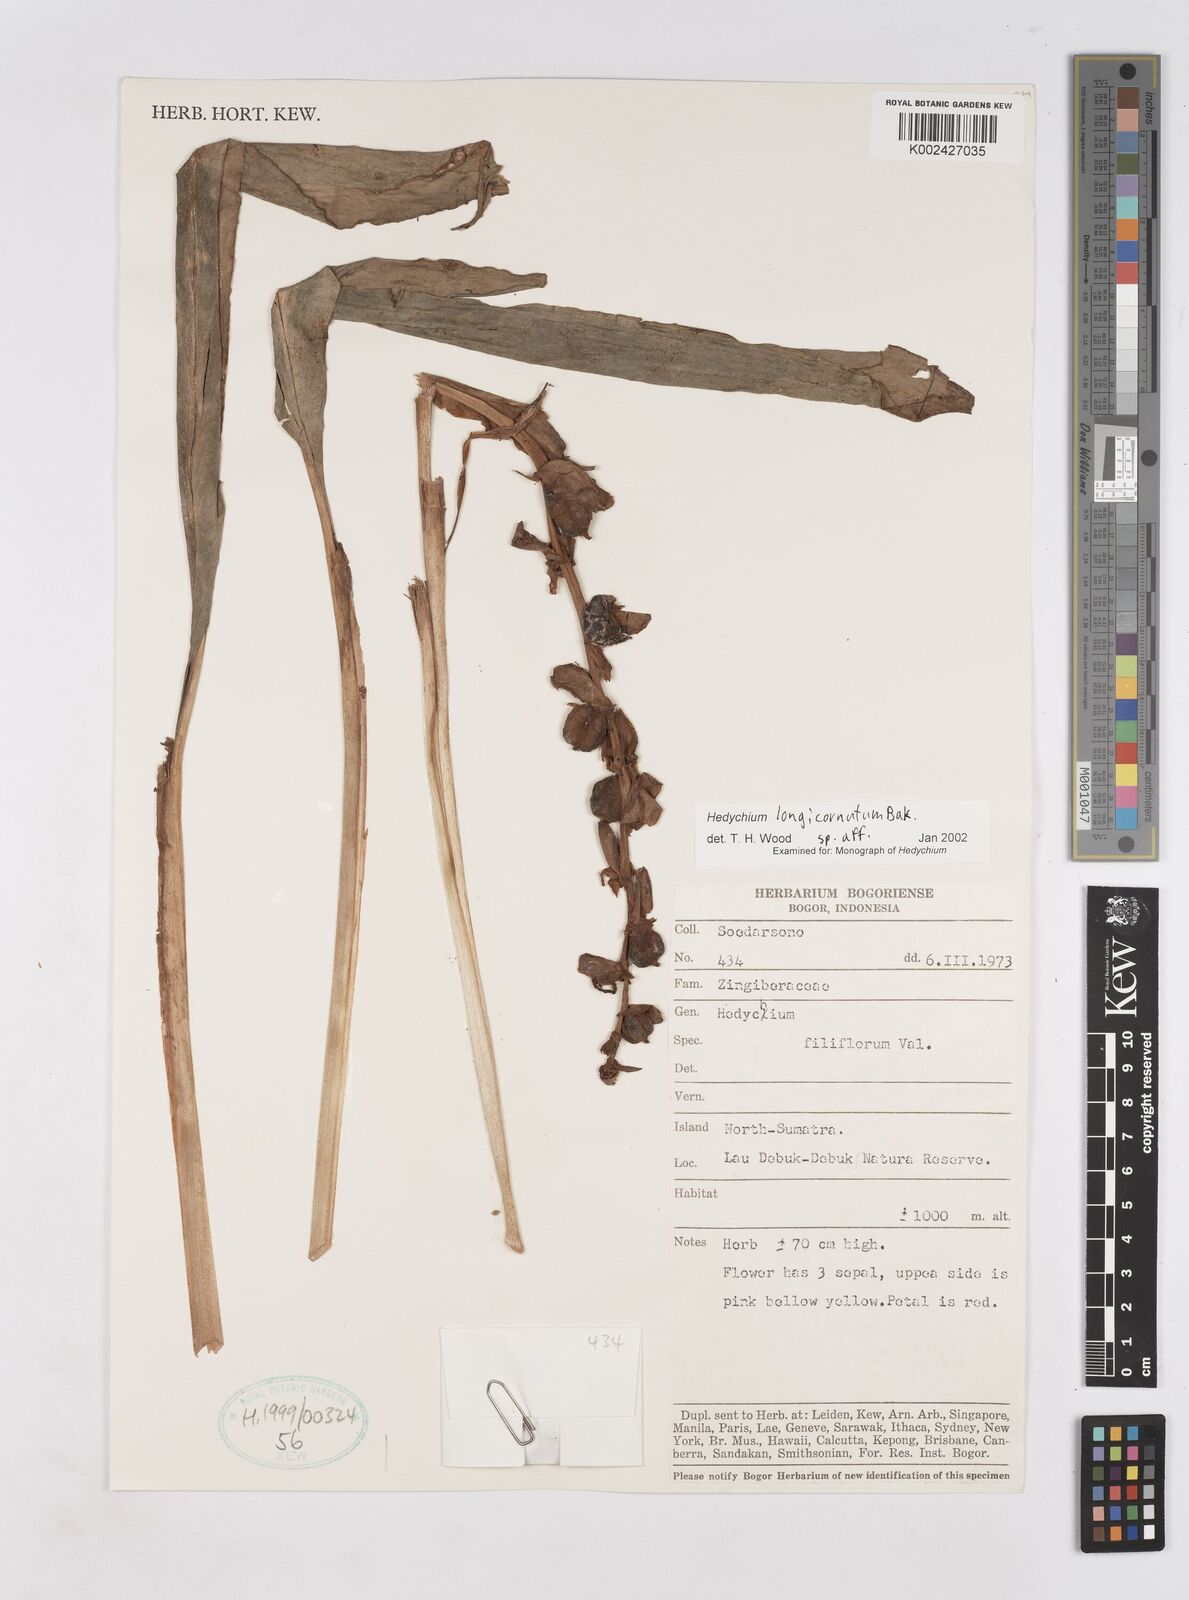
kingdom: Plantae
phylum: Tracheophyta
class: Liliopsida
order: Zingiberales
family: Zingiberaceae
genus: Hedychium
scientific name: Hedychium longicornutum
